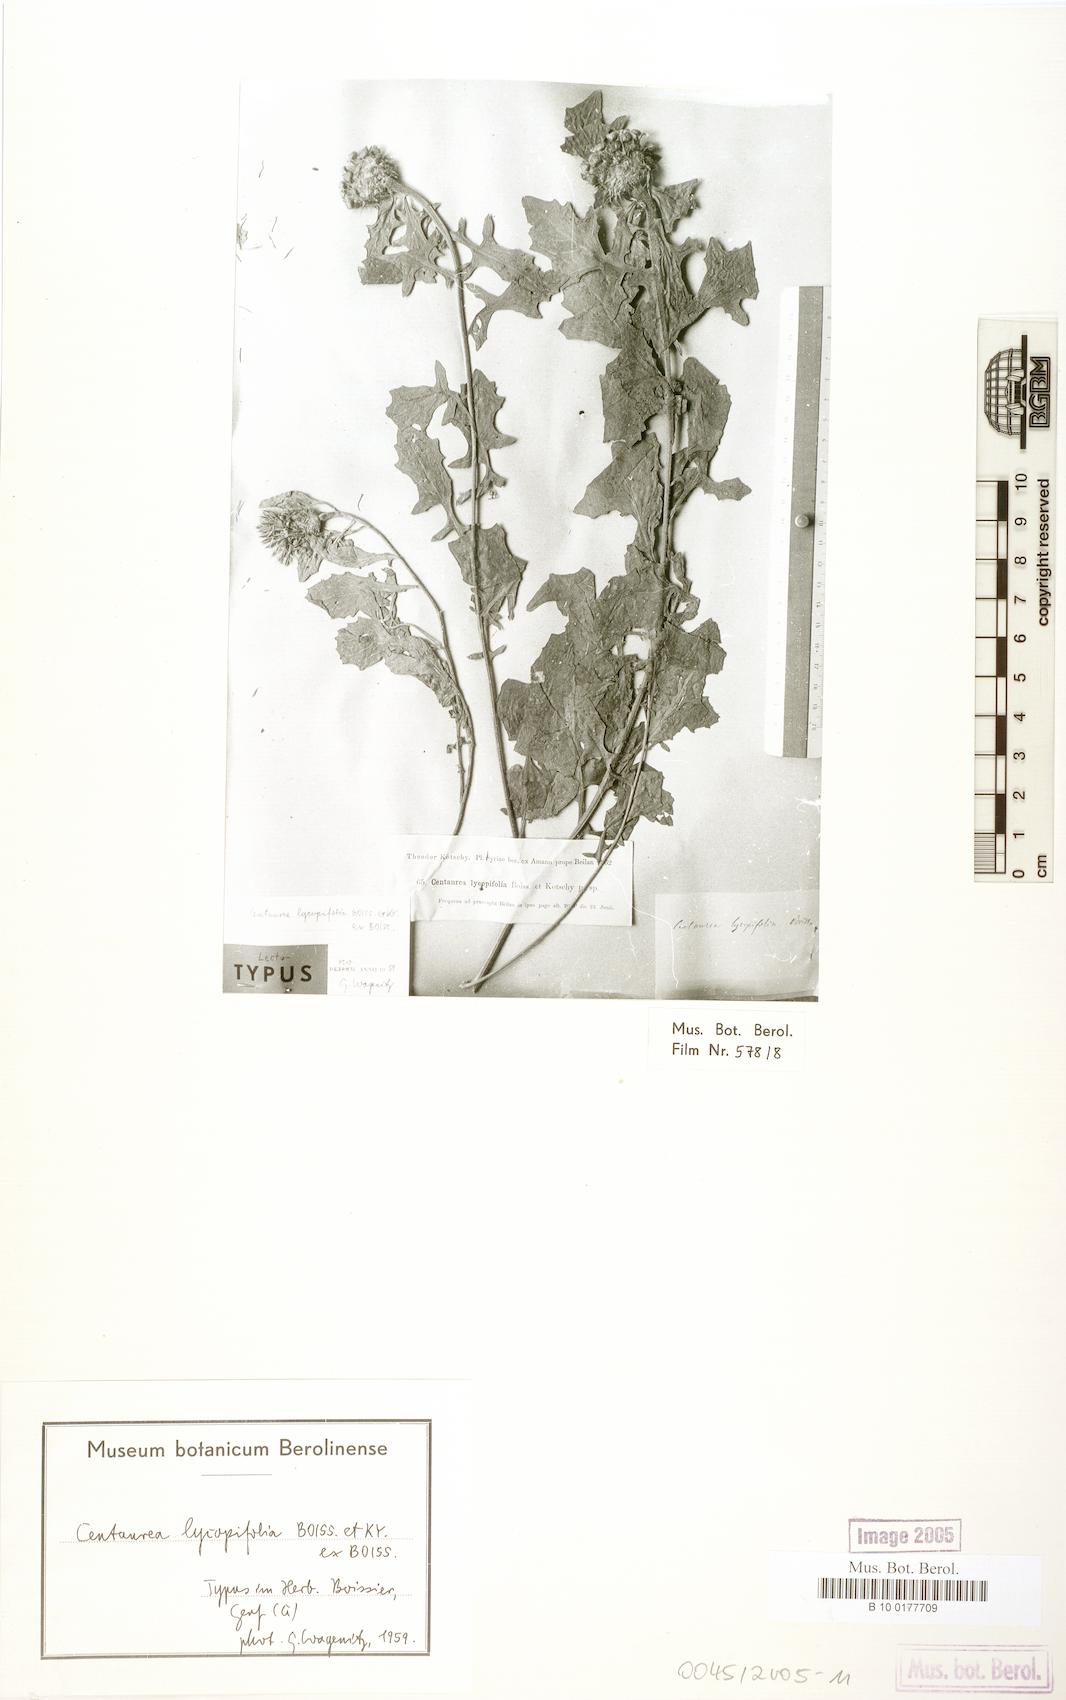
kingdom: Plantae
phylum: Tracheophyta
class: Magnoliopsida
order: Asterales
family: Asteraceae
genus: Centaurea
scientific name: Centaurea lycopifolia
